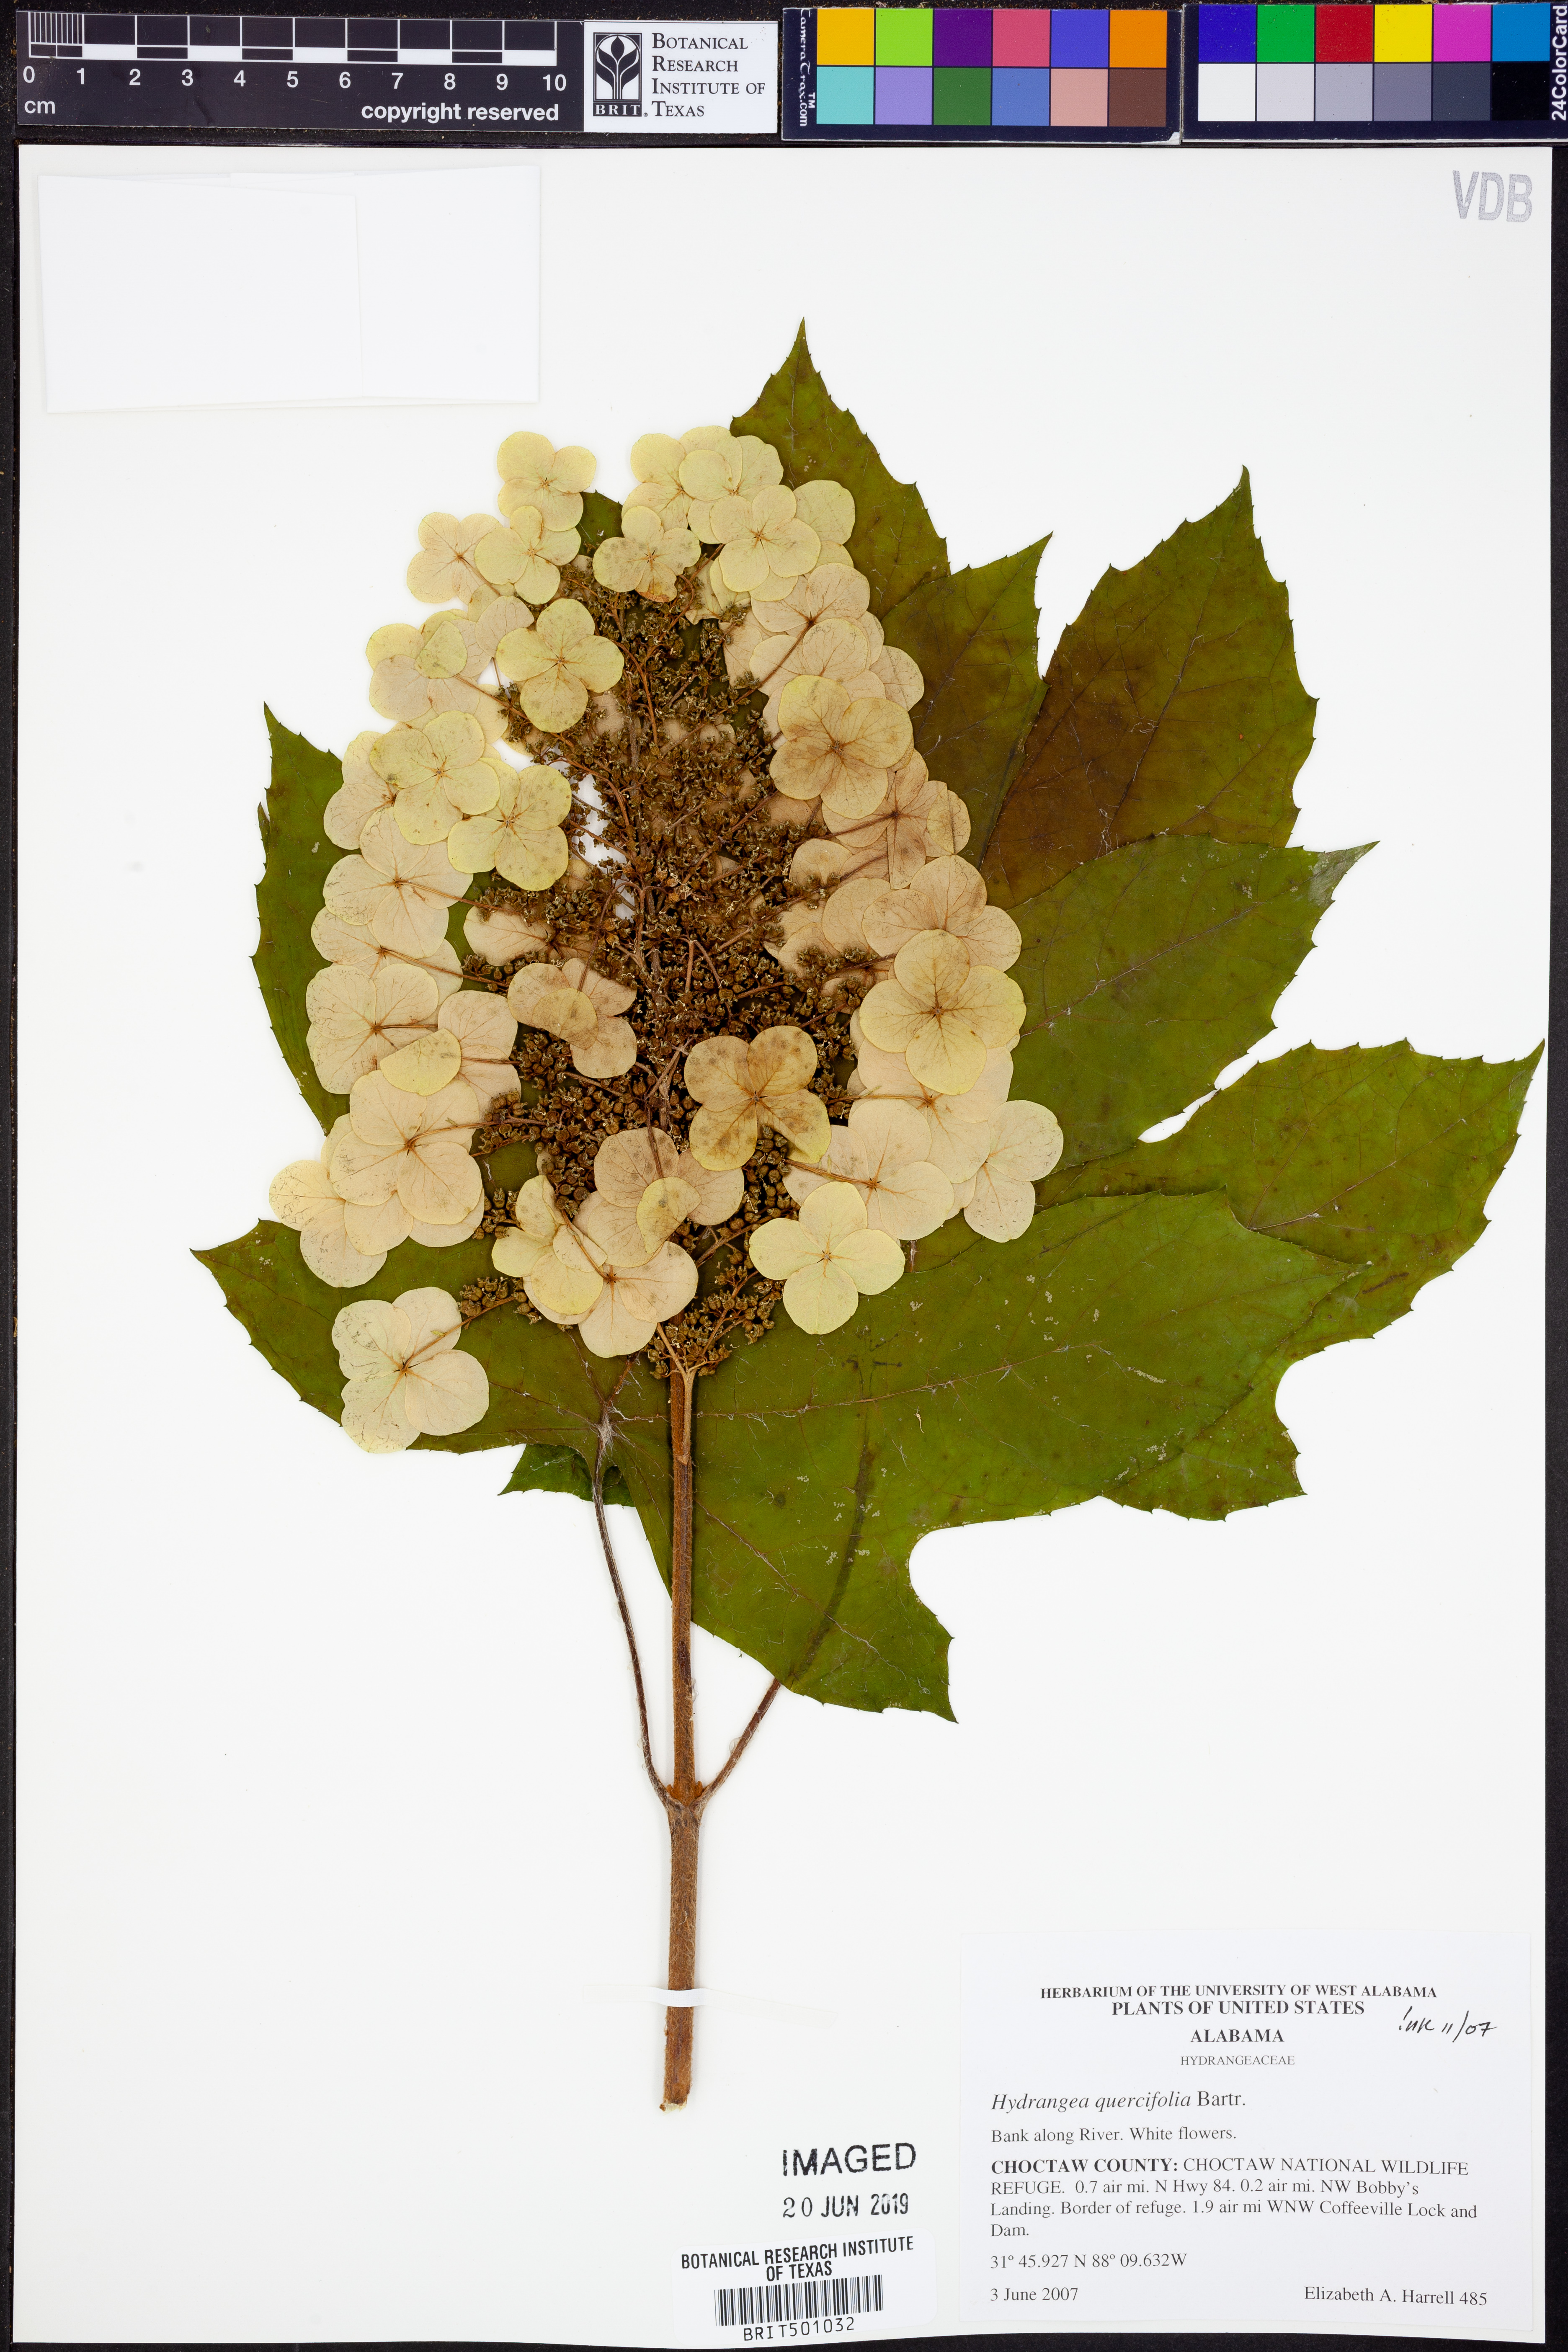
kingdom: Plantae
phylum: Tracheophyta
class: Magnoliopsida
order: Cornales
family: Hydrangeaceae
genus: Hydrangea
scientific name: Hydrangea quercifolia
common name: Oak-leaf hydrangea
